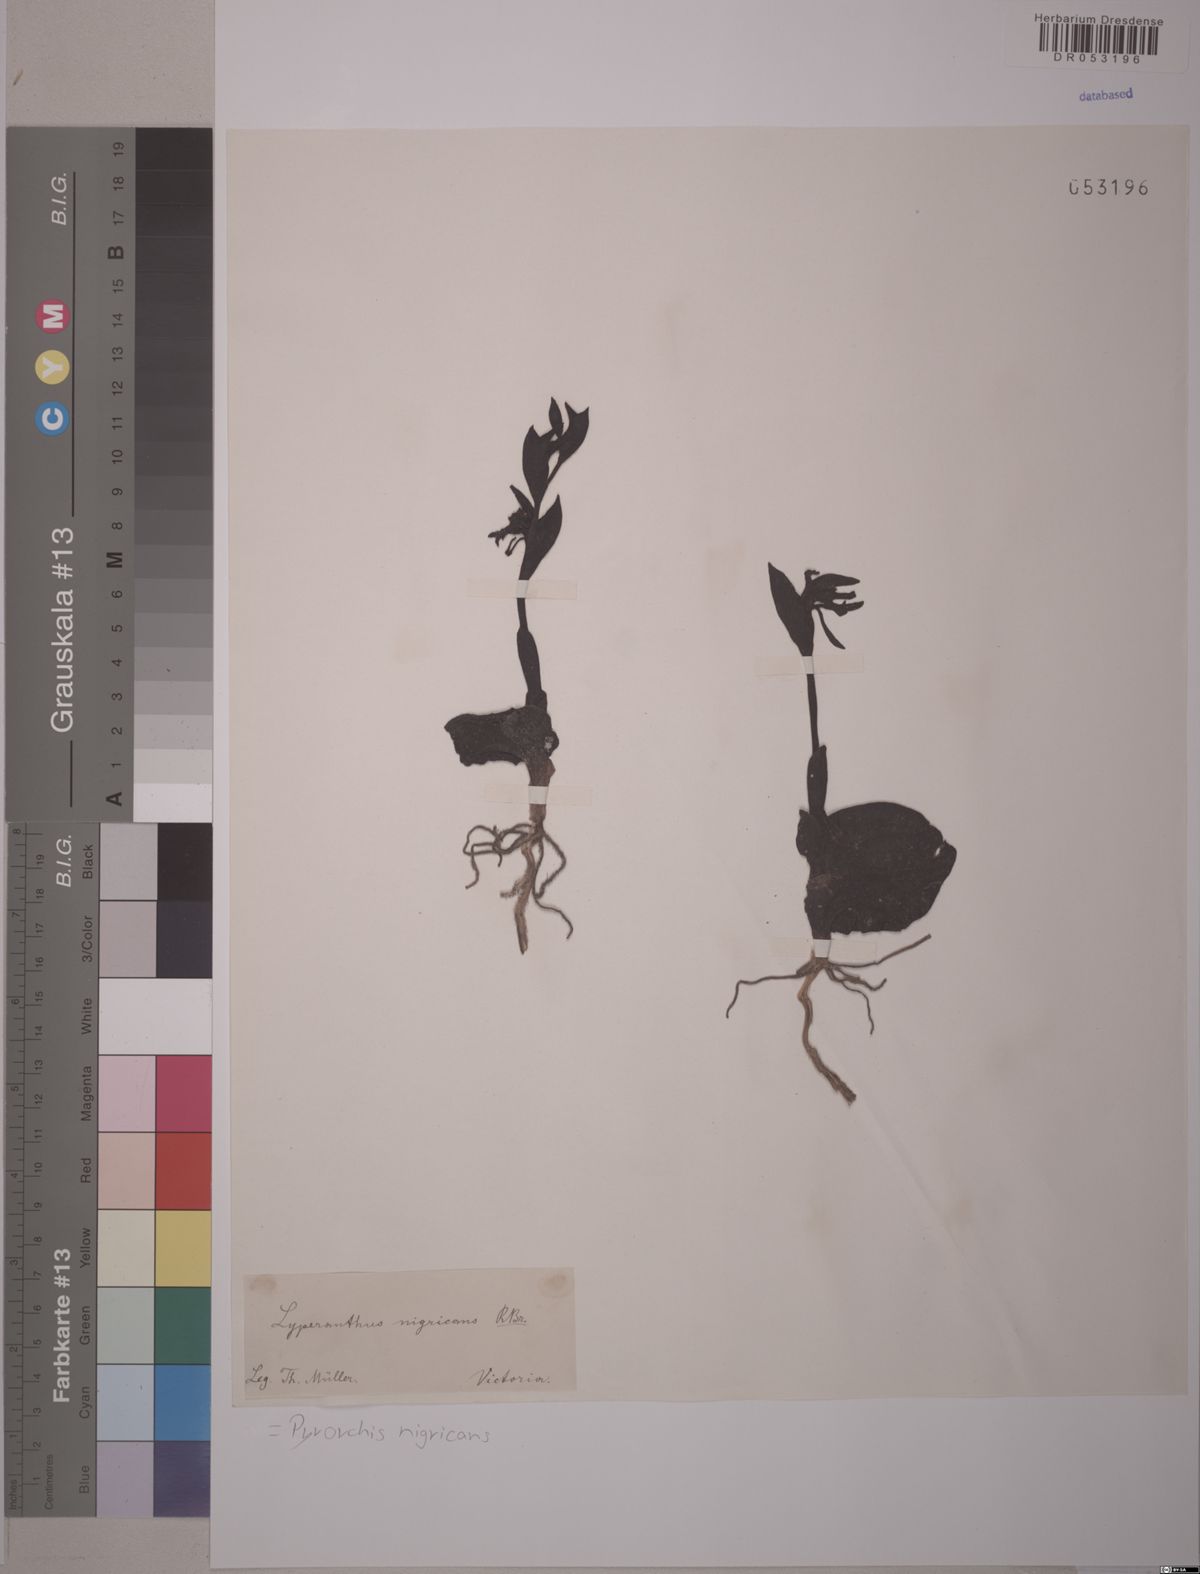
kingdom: Plantae
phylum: Tracheophyta
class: Liliopsida
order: Asparagales
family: Orchidaceae
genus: Pyrorchis
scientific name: Pyrorchis nigricans
